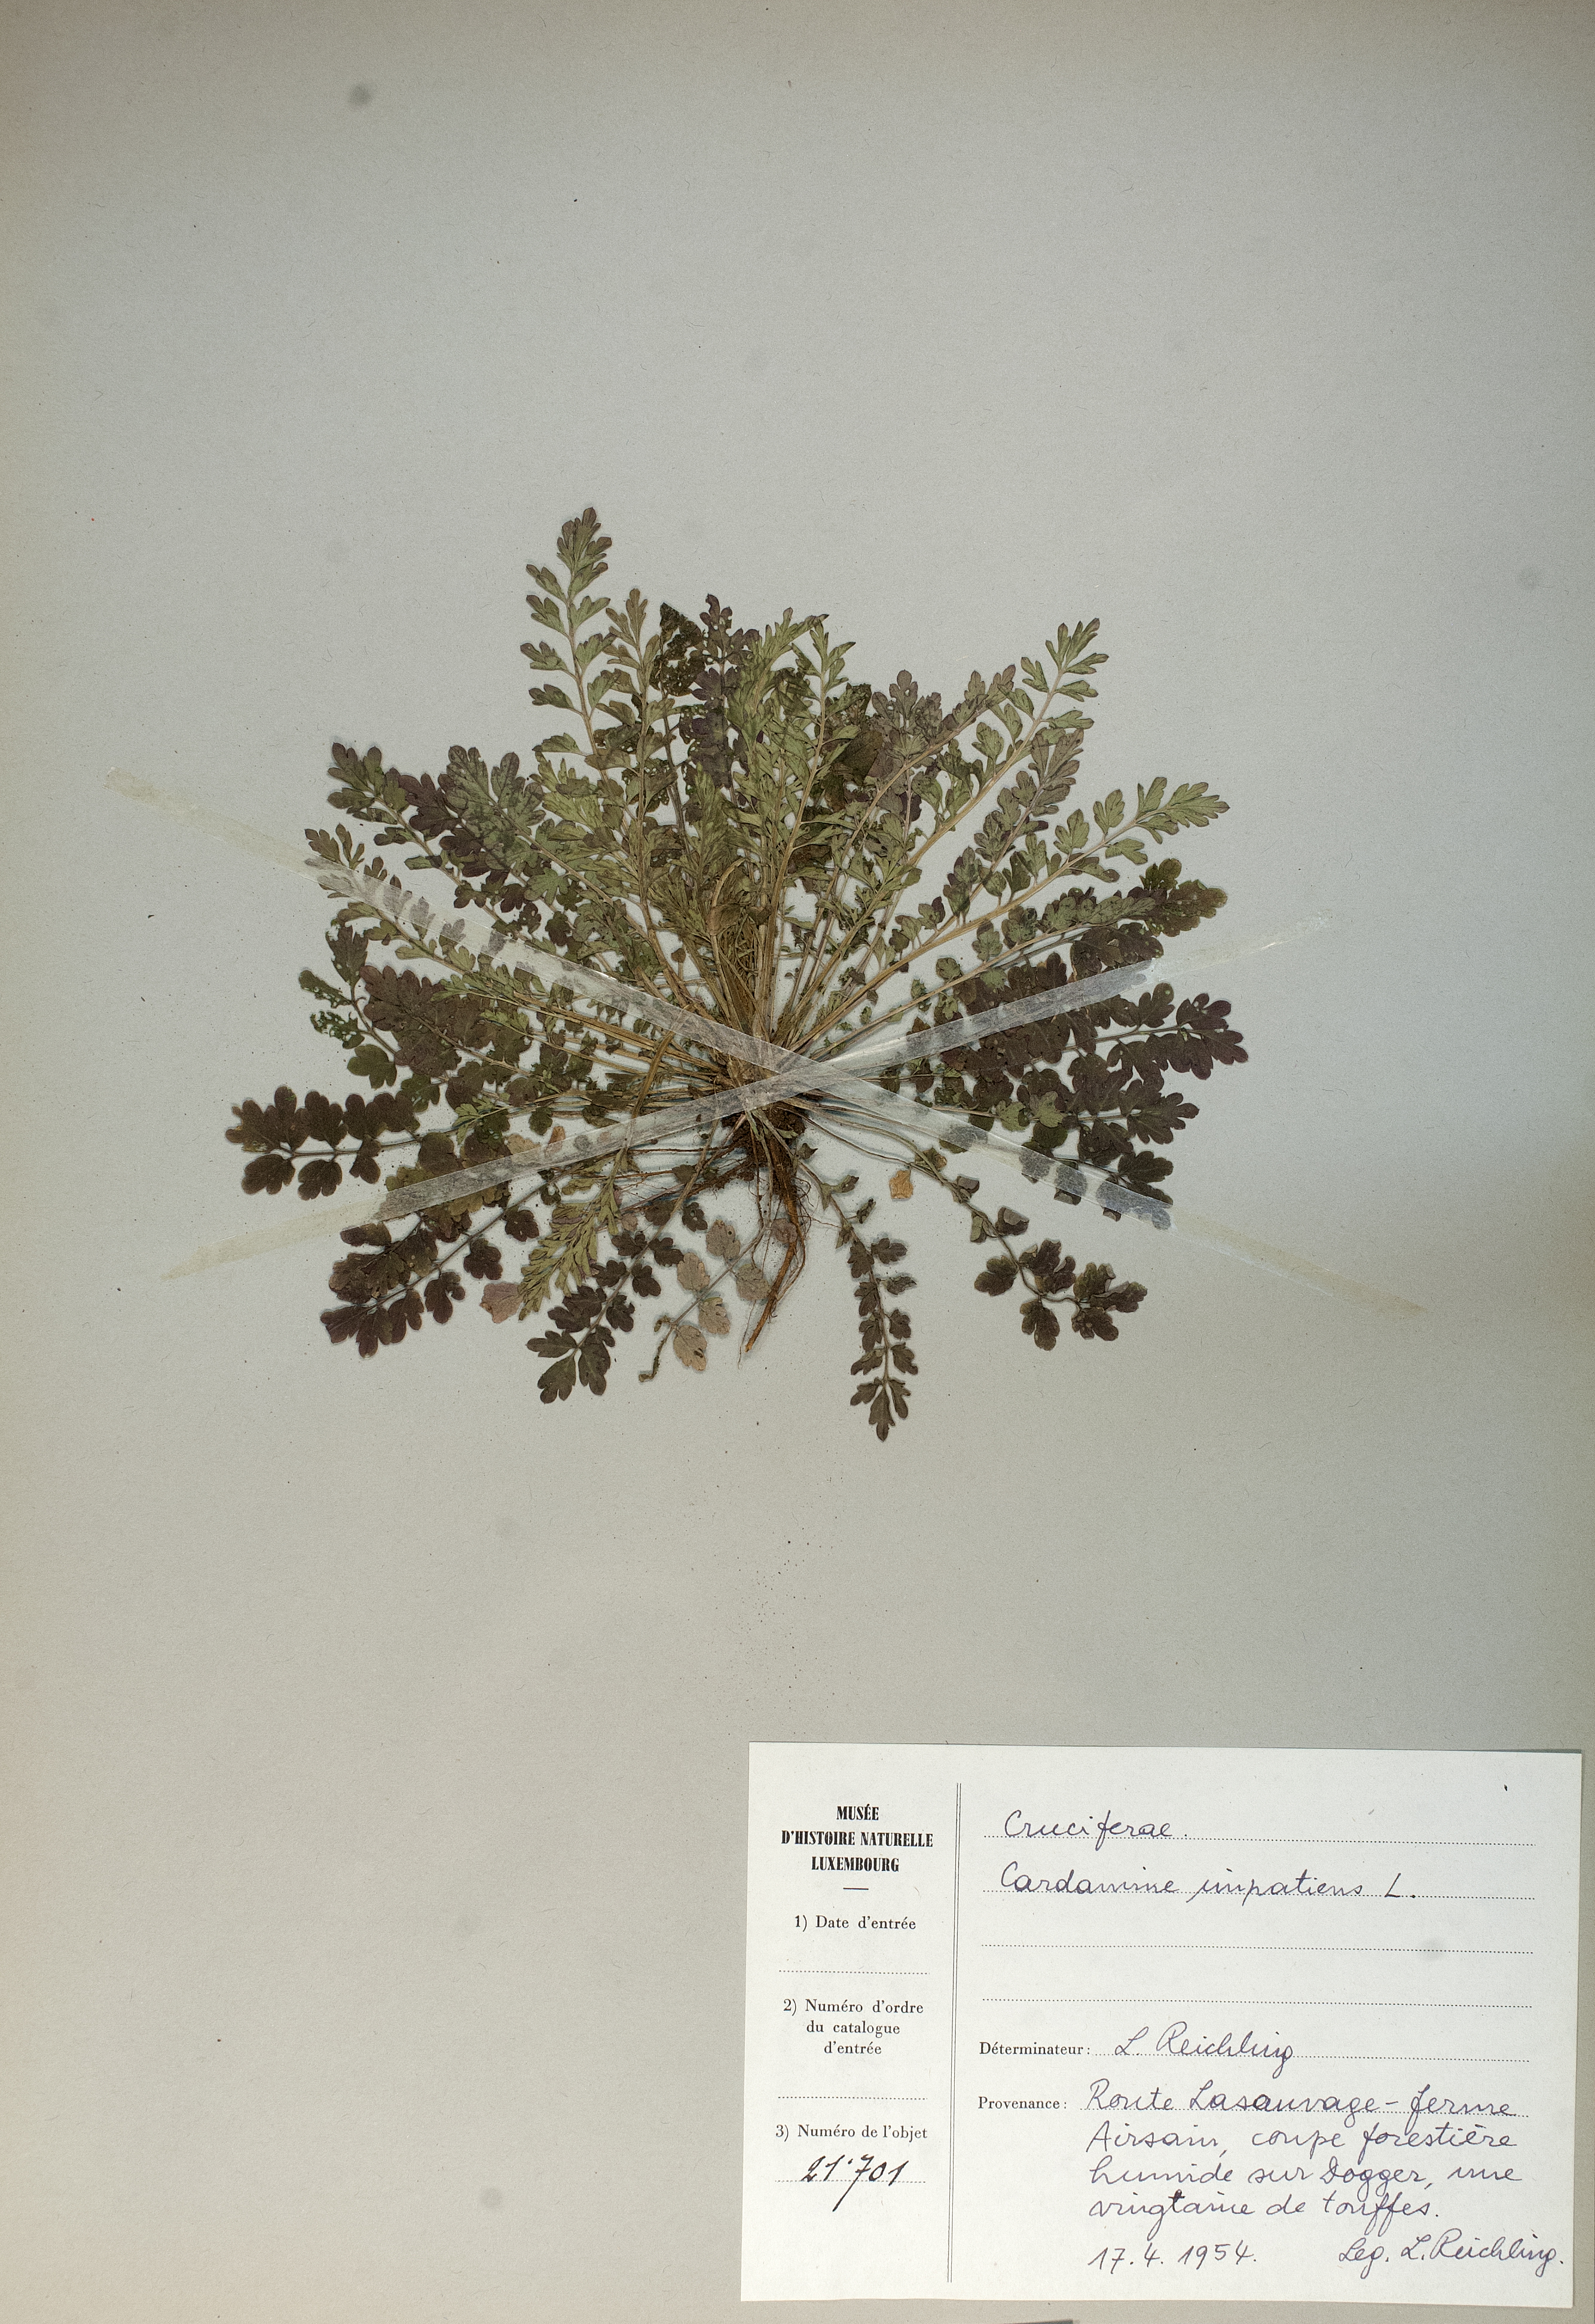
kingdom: Plantae
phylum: Tracheophyta
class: Magnoliopsida
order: Brassicales
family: Brassicaceae
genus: Cardamine
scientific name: Cardamine impatiens
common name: Narrow-leaved bitter-cress
